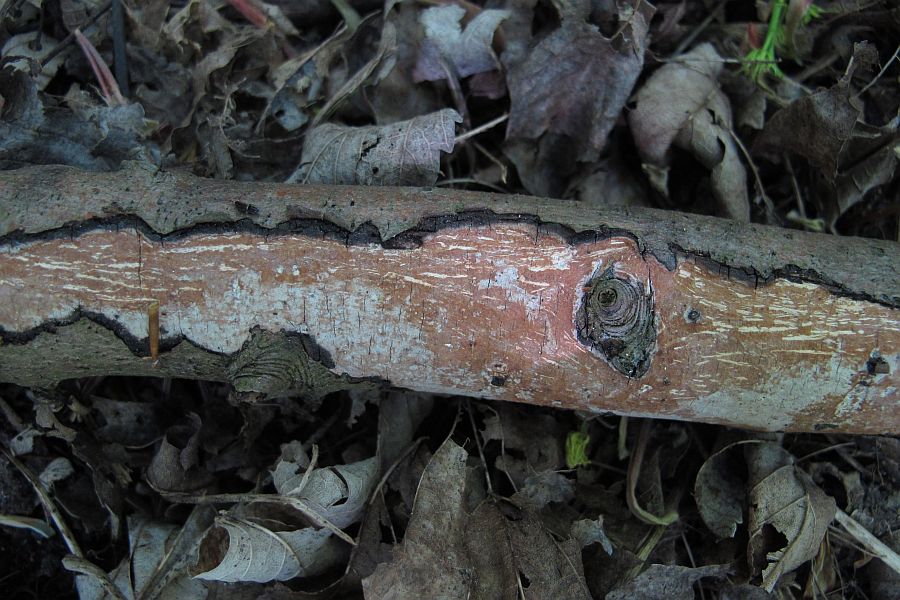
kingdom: Fungi
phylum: Basidiomycota
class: Agaricomycetes
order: Corticiales
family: Vuilleminiaceae
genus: Vuilleminia
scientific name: Vuilleminia cystidiata
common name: tjørne-barksprænger
